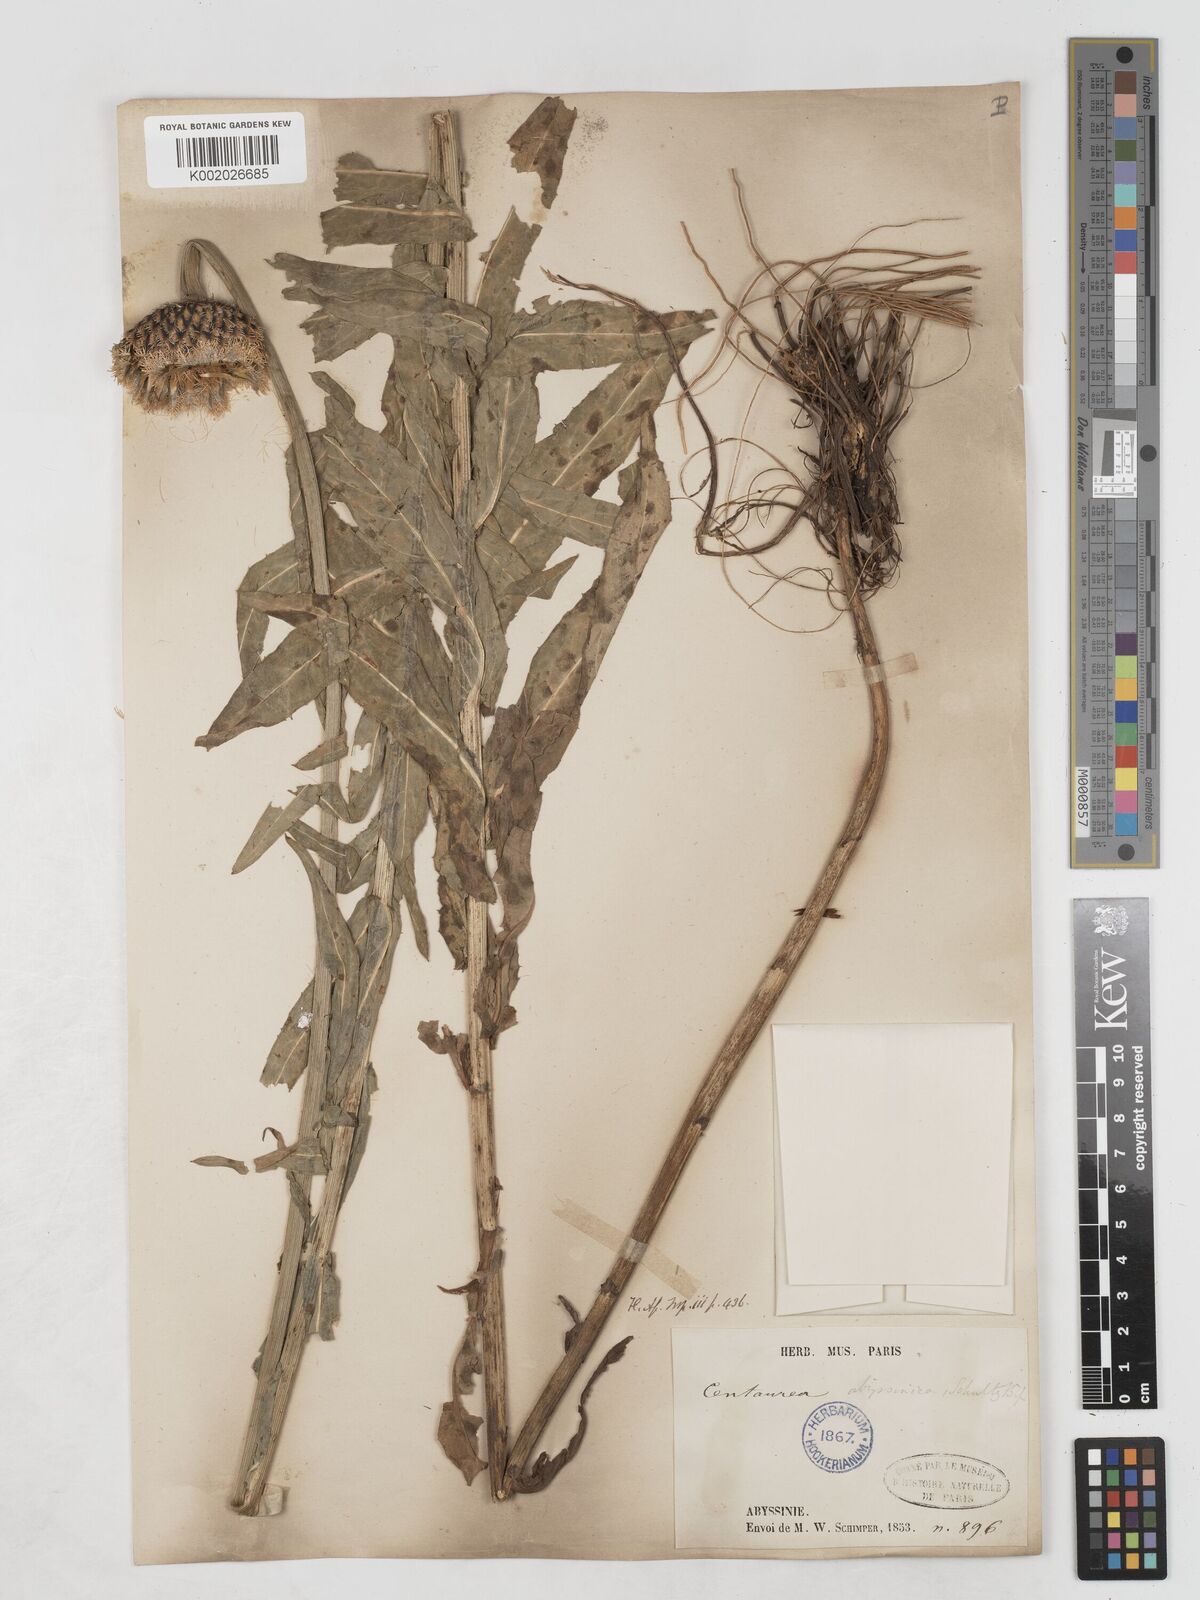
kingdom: Plantae
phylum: Tracheophyta
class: Magnoliopsida
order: Asterales
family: Asteraceae
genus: Plectocephalus
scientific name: Plectocephalus varians
